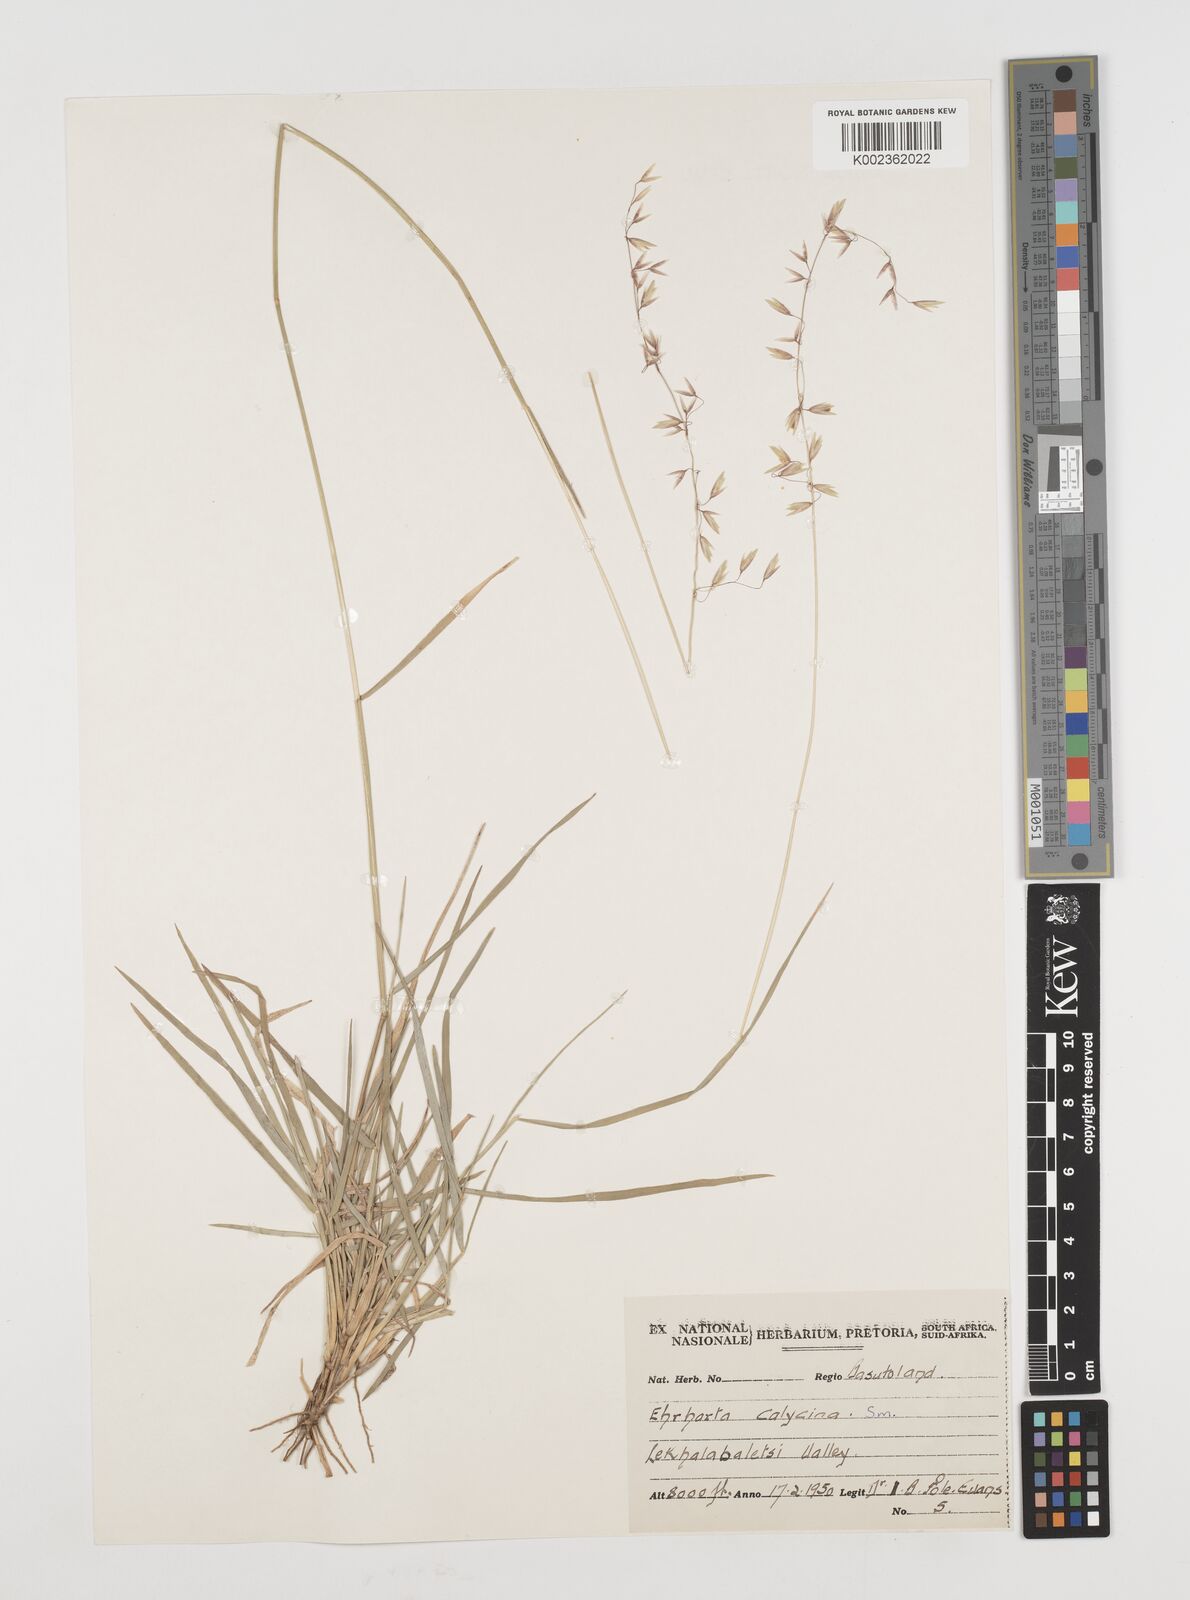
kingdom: Plantae
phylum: Tracheophyta
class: Liliopsida
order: Poales
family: Poaceae
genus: Ehrharta
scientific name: Ehrharta calycina
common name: Perennial veldtgrass
